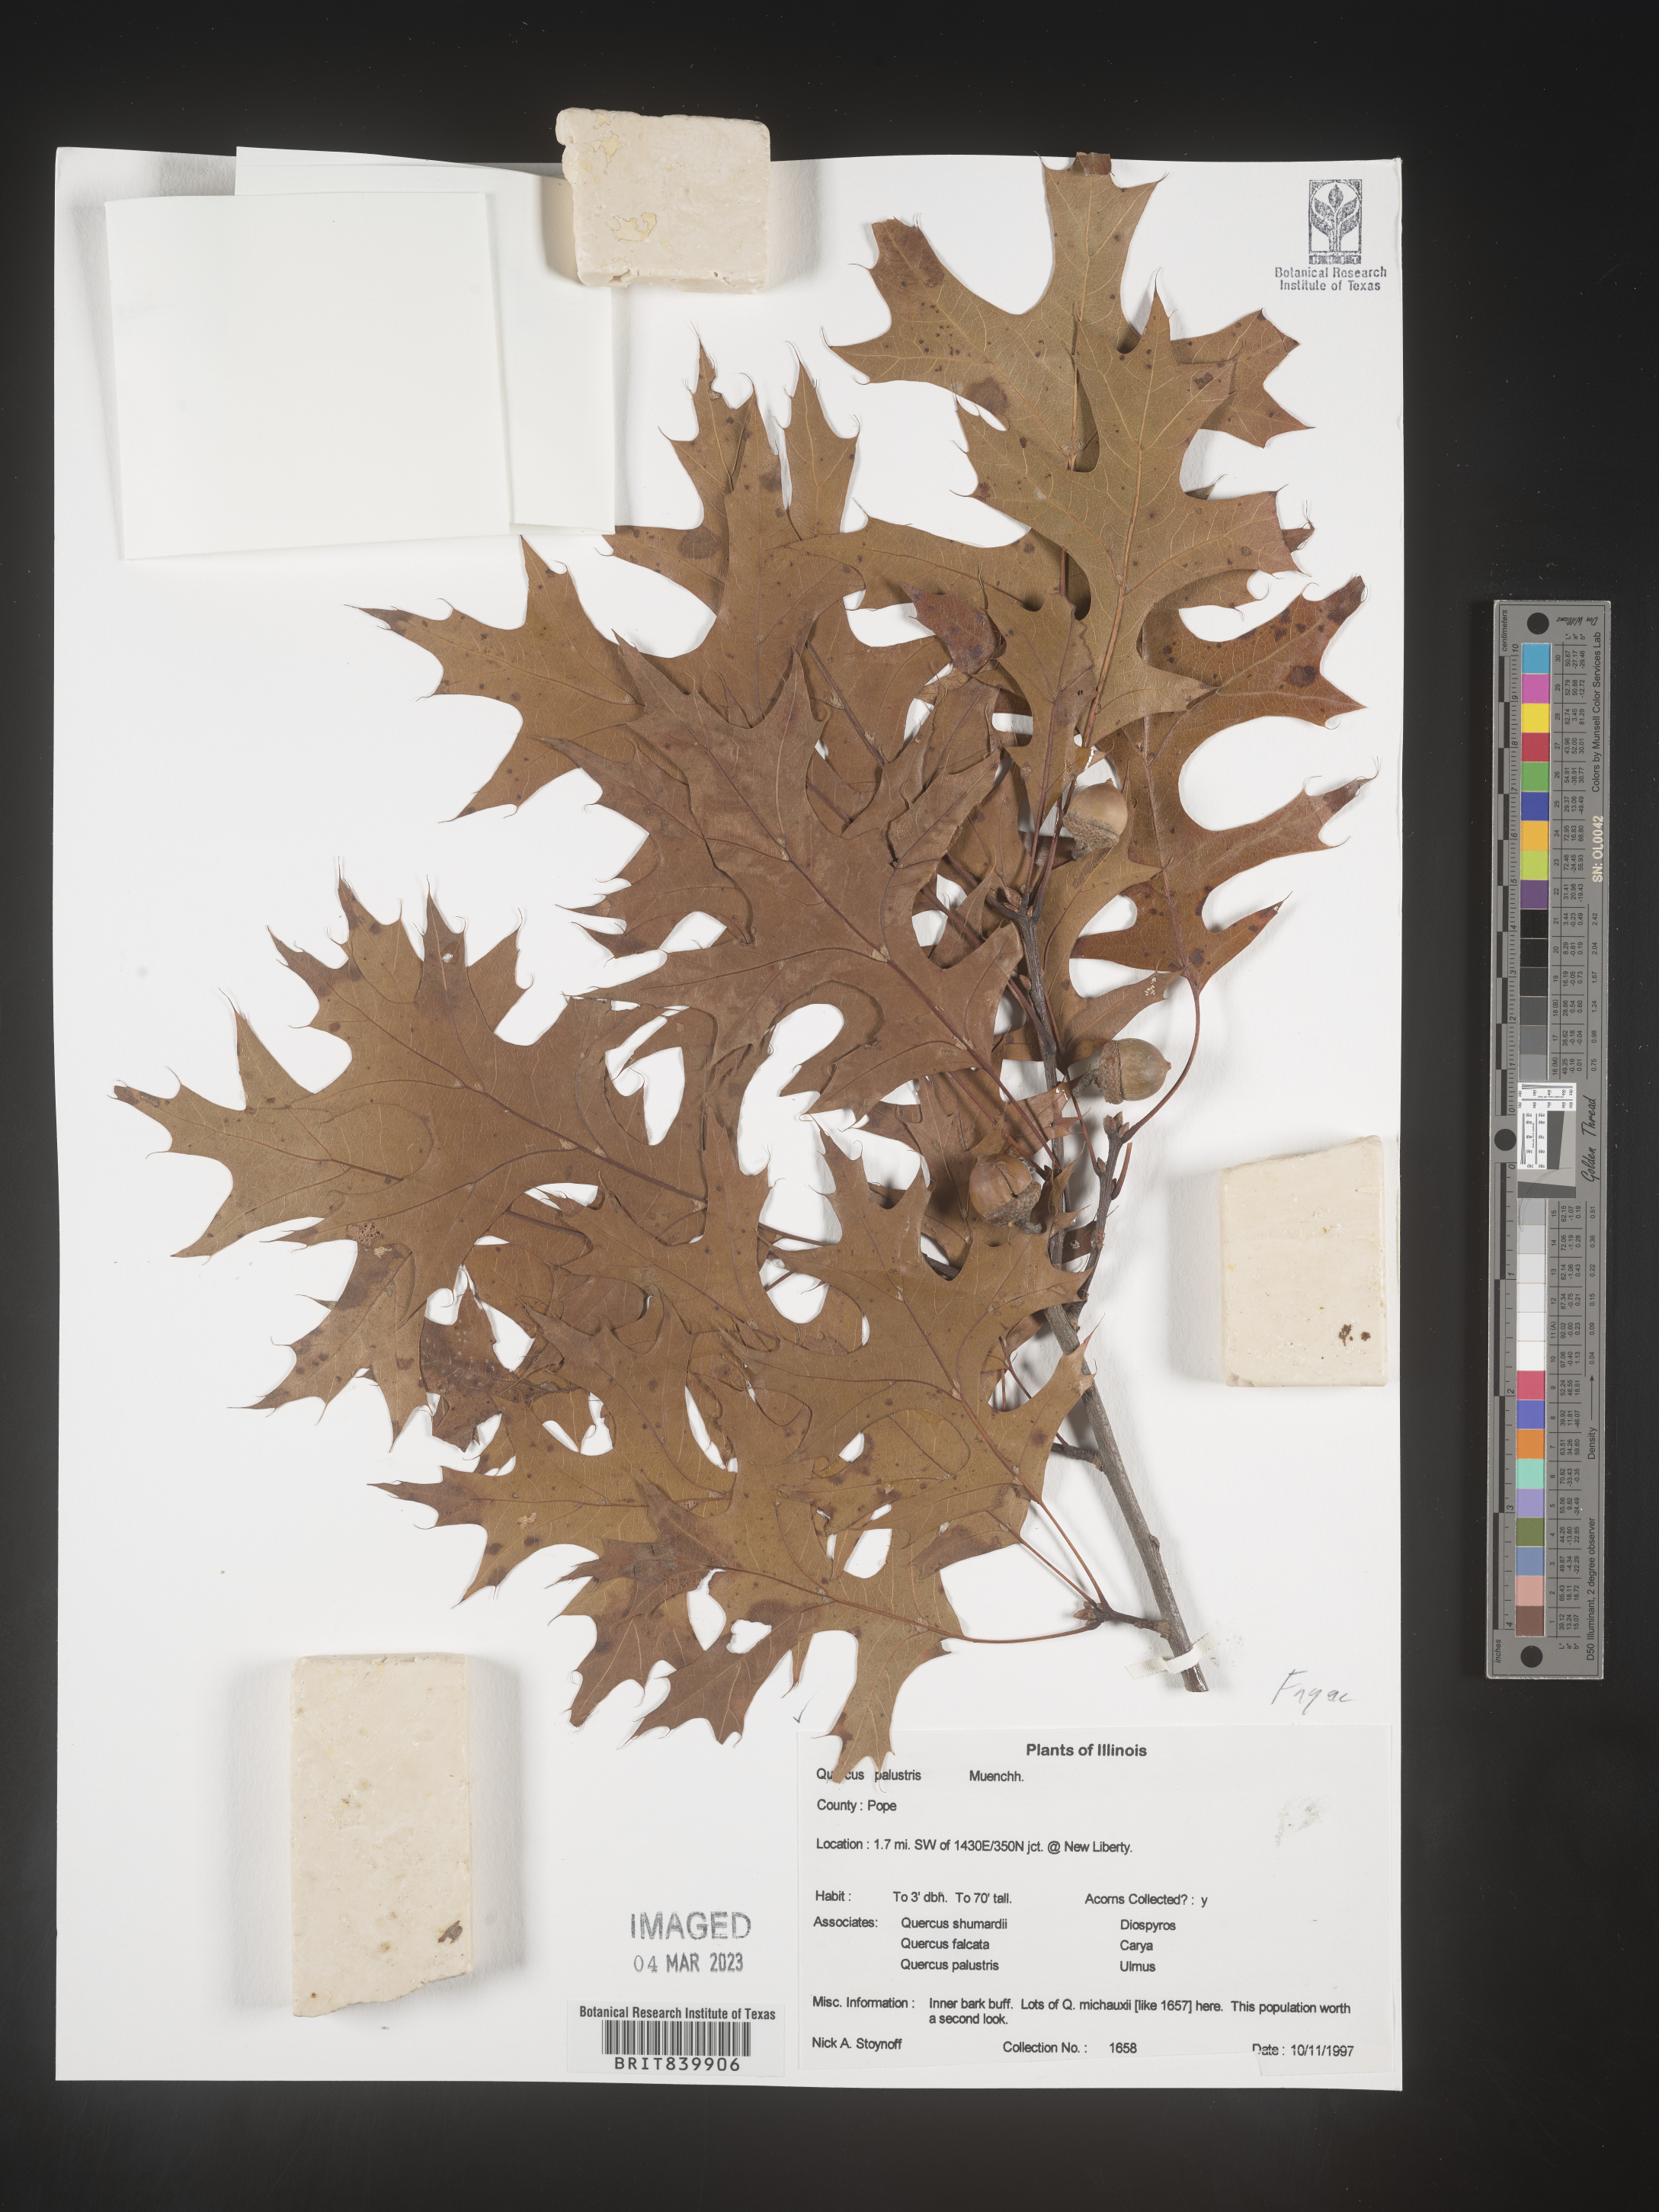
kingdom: Plantae
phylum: Tracheophyta
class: Magnoliopsida
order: Fagales
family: Fagaceae
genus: Quercus
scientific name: Quercus palustris
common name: Pin oak
